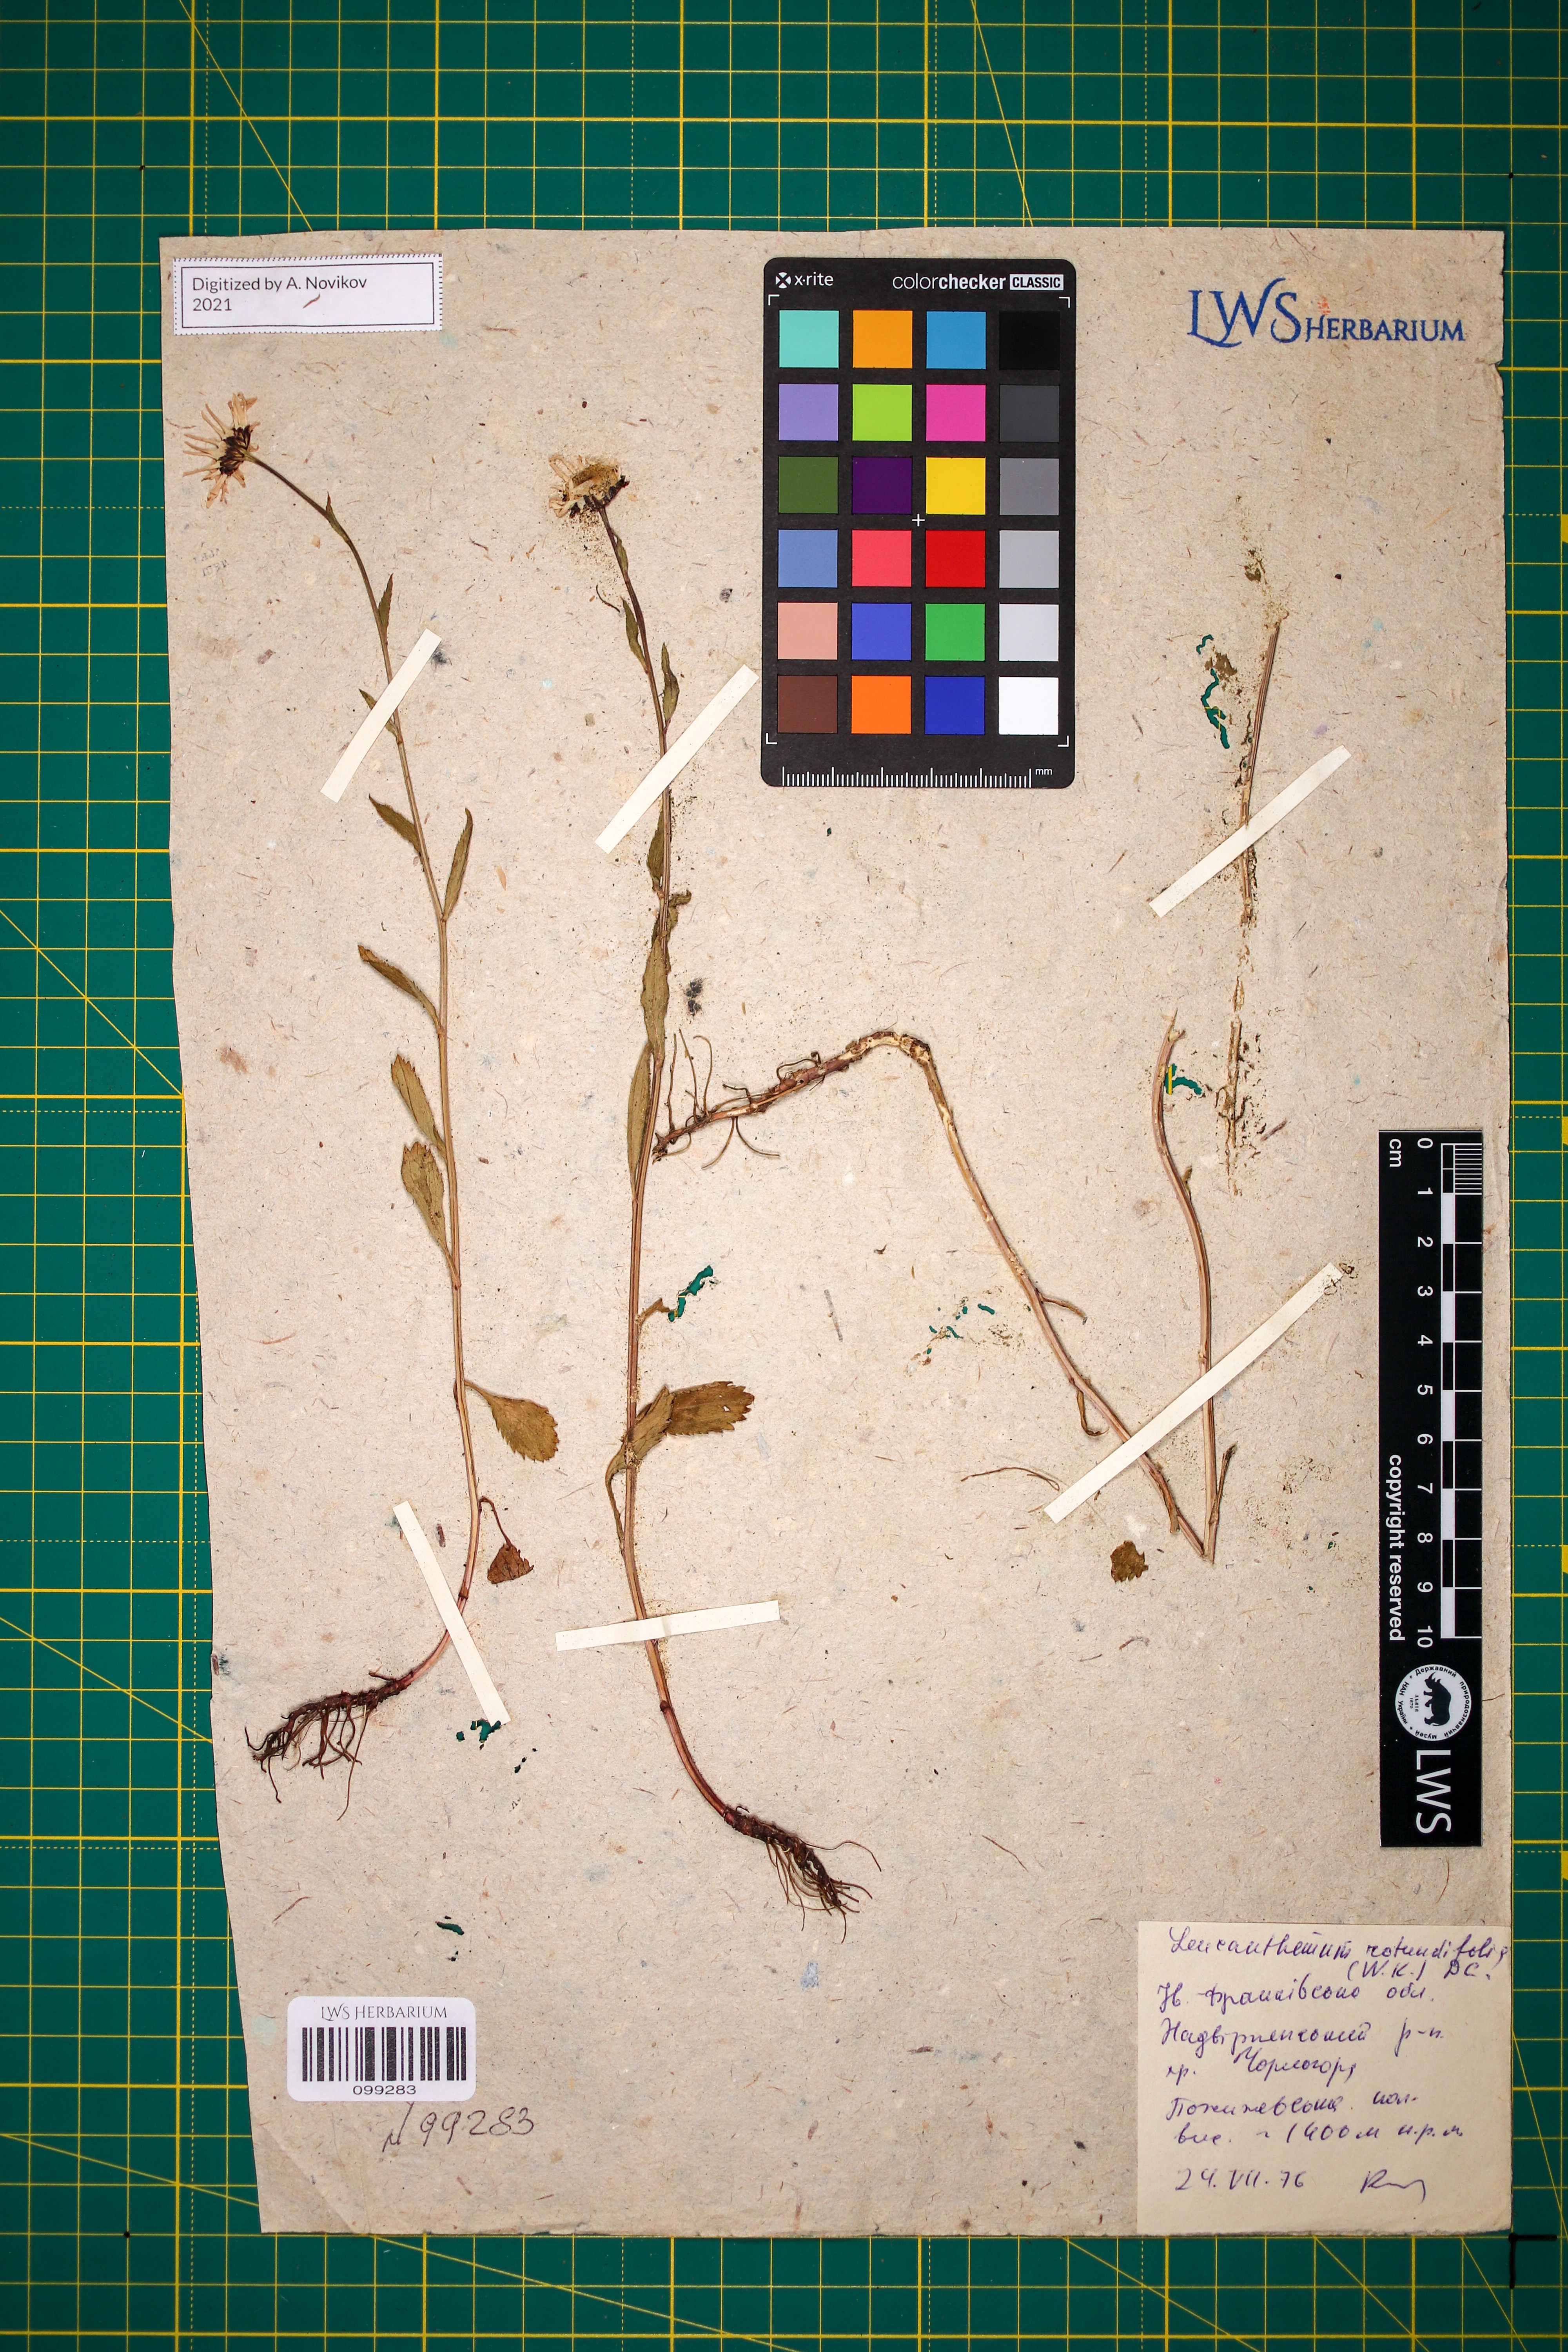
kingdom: Plantae
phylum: Tracheophyta
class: Magnoliopsida
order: Asterales
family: Asteraceae
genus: Leucanthemum
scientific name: Leucanthemum rotundifolium
